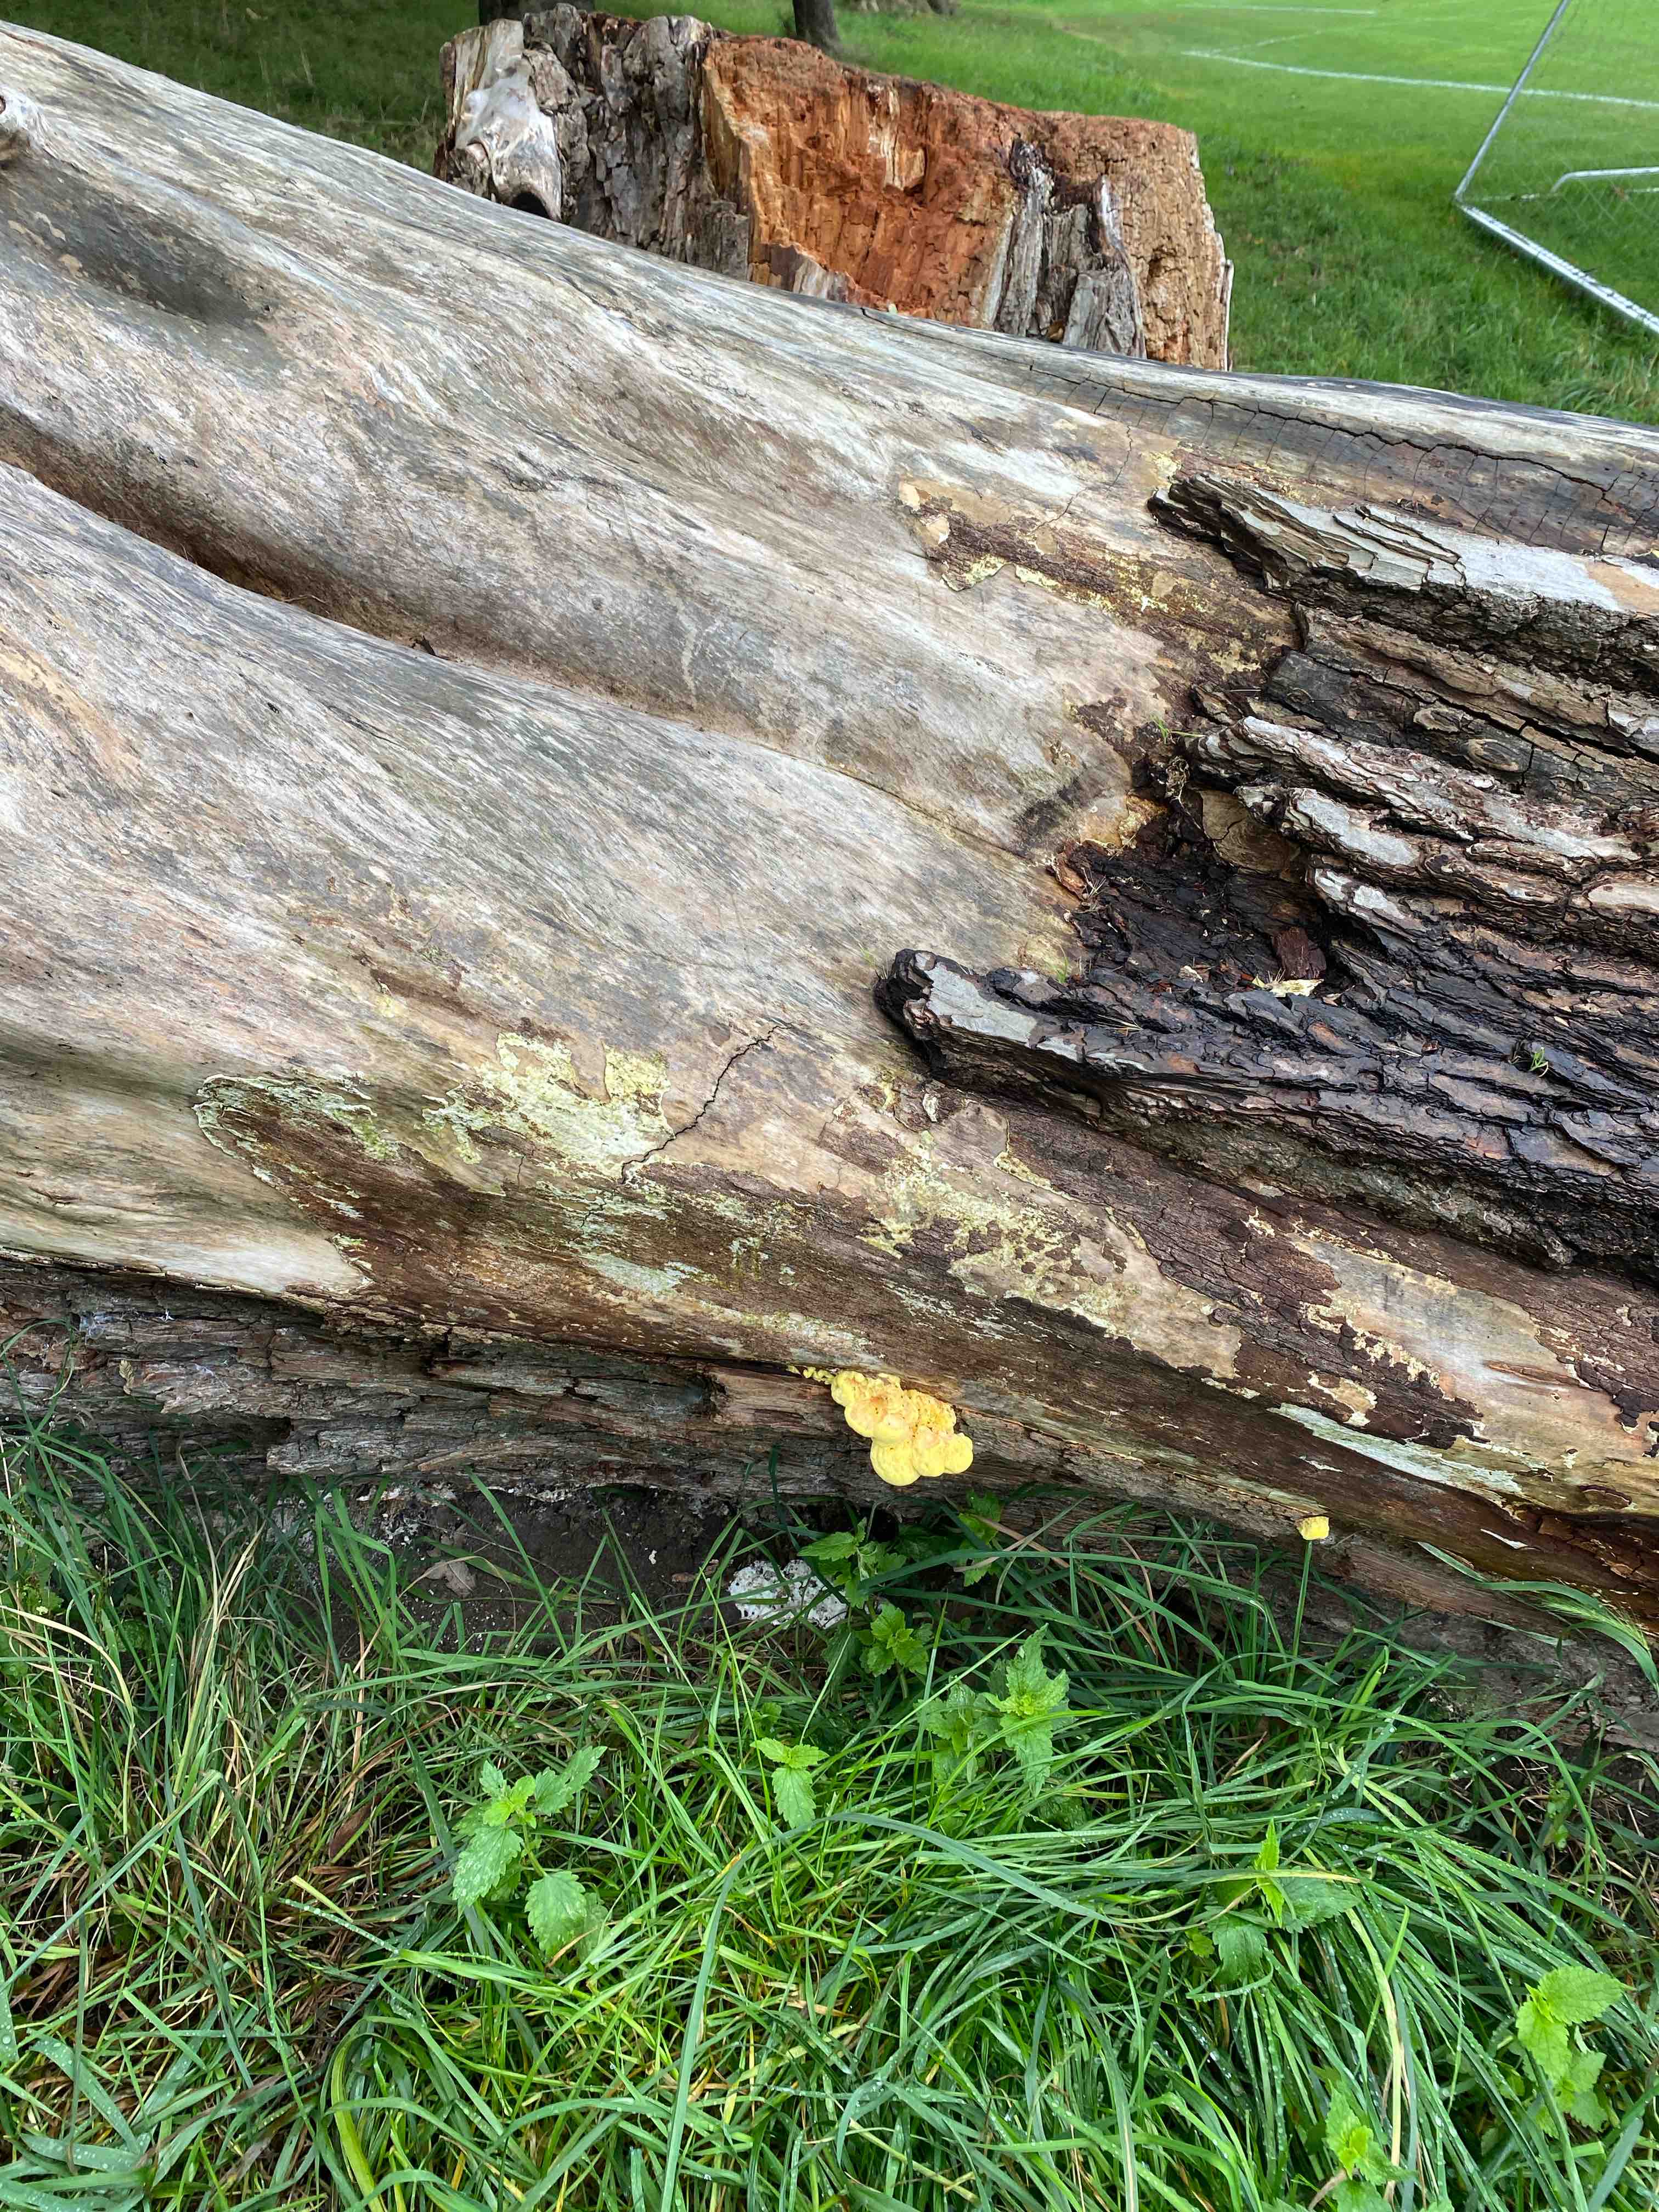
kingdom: Fungi
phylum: Basidiomycota
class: Agaricomycetes
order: Polyporales
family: Laetiporaceae
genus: Laetiporus
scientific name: Laetiporus sulphureus
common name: svovlporesvamp
